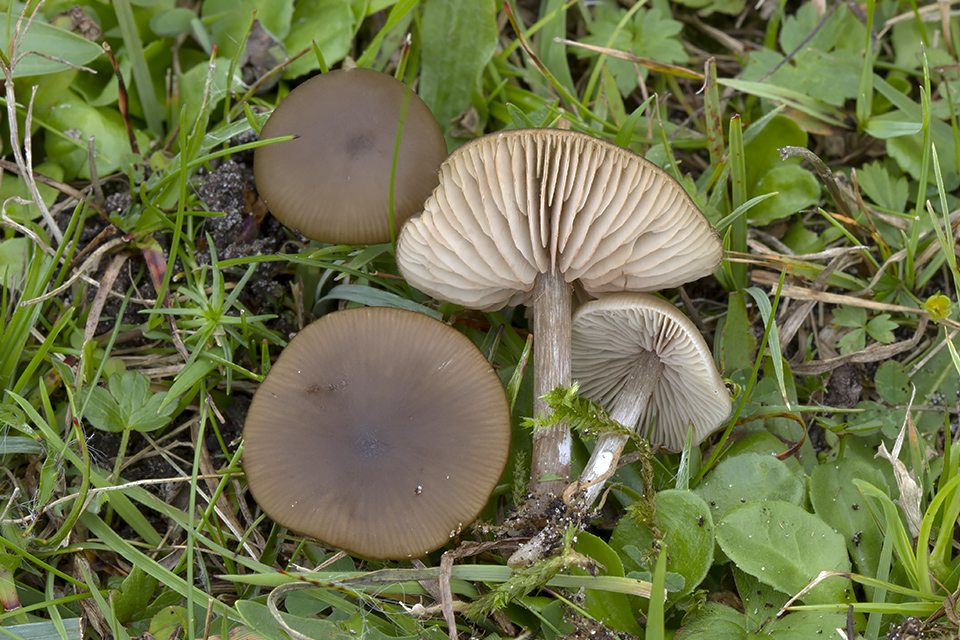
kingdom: Fungi
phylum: Basidiomycota
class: Agaricomycetes
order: Agaricales
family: Entolomataceae
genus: Entoloma
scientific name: Entoloma sericeum
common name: silkeglinsende rødblad
